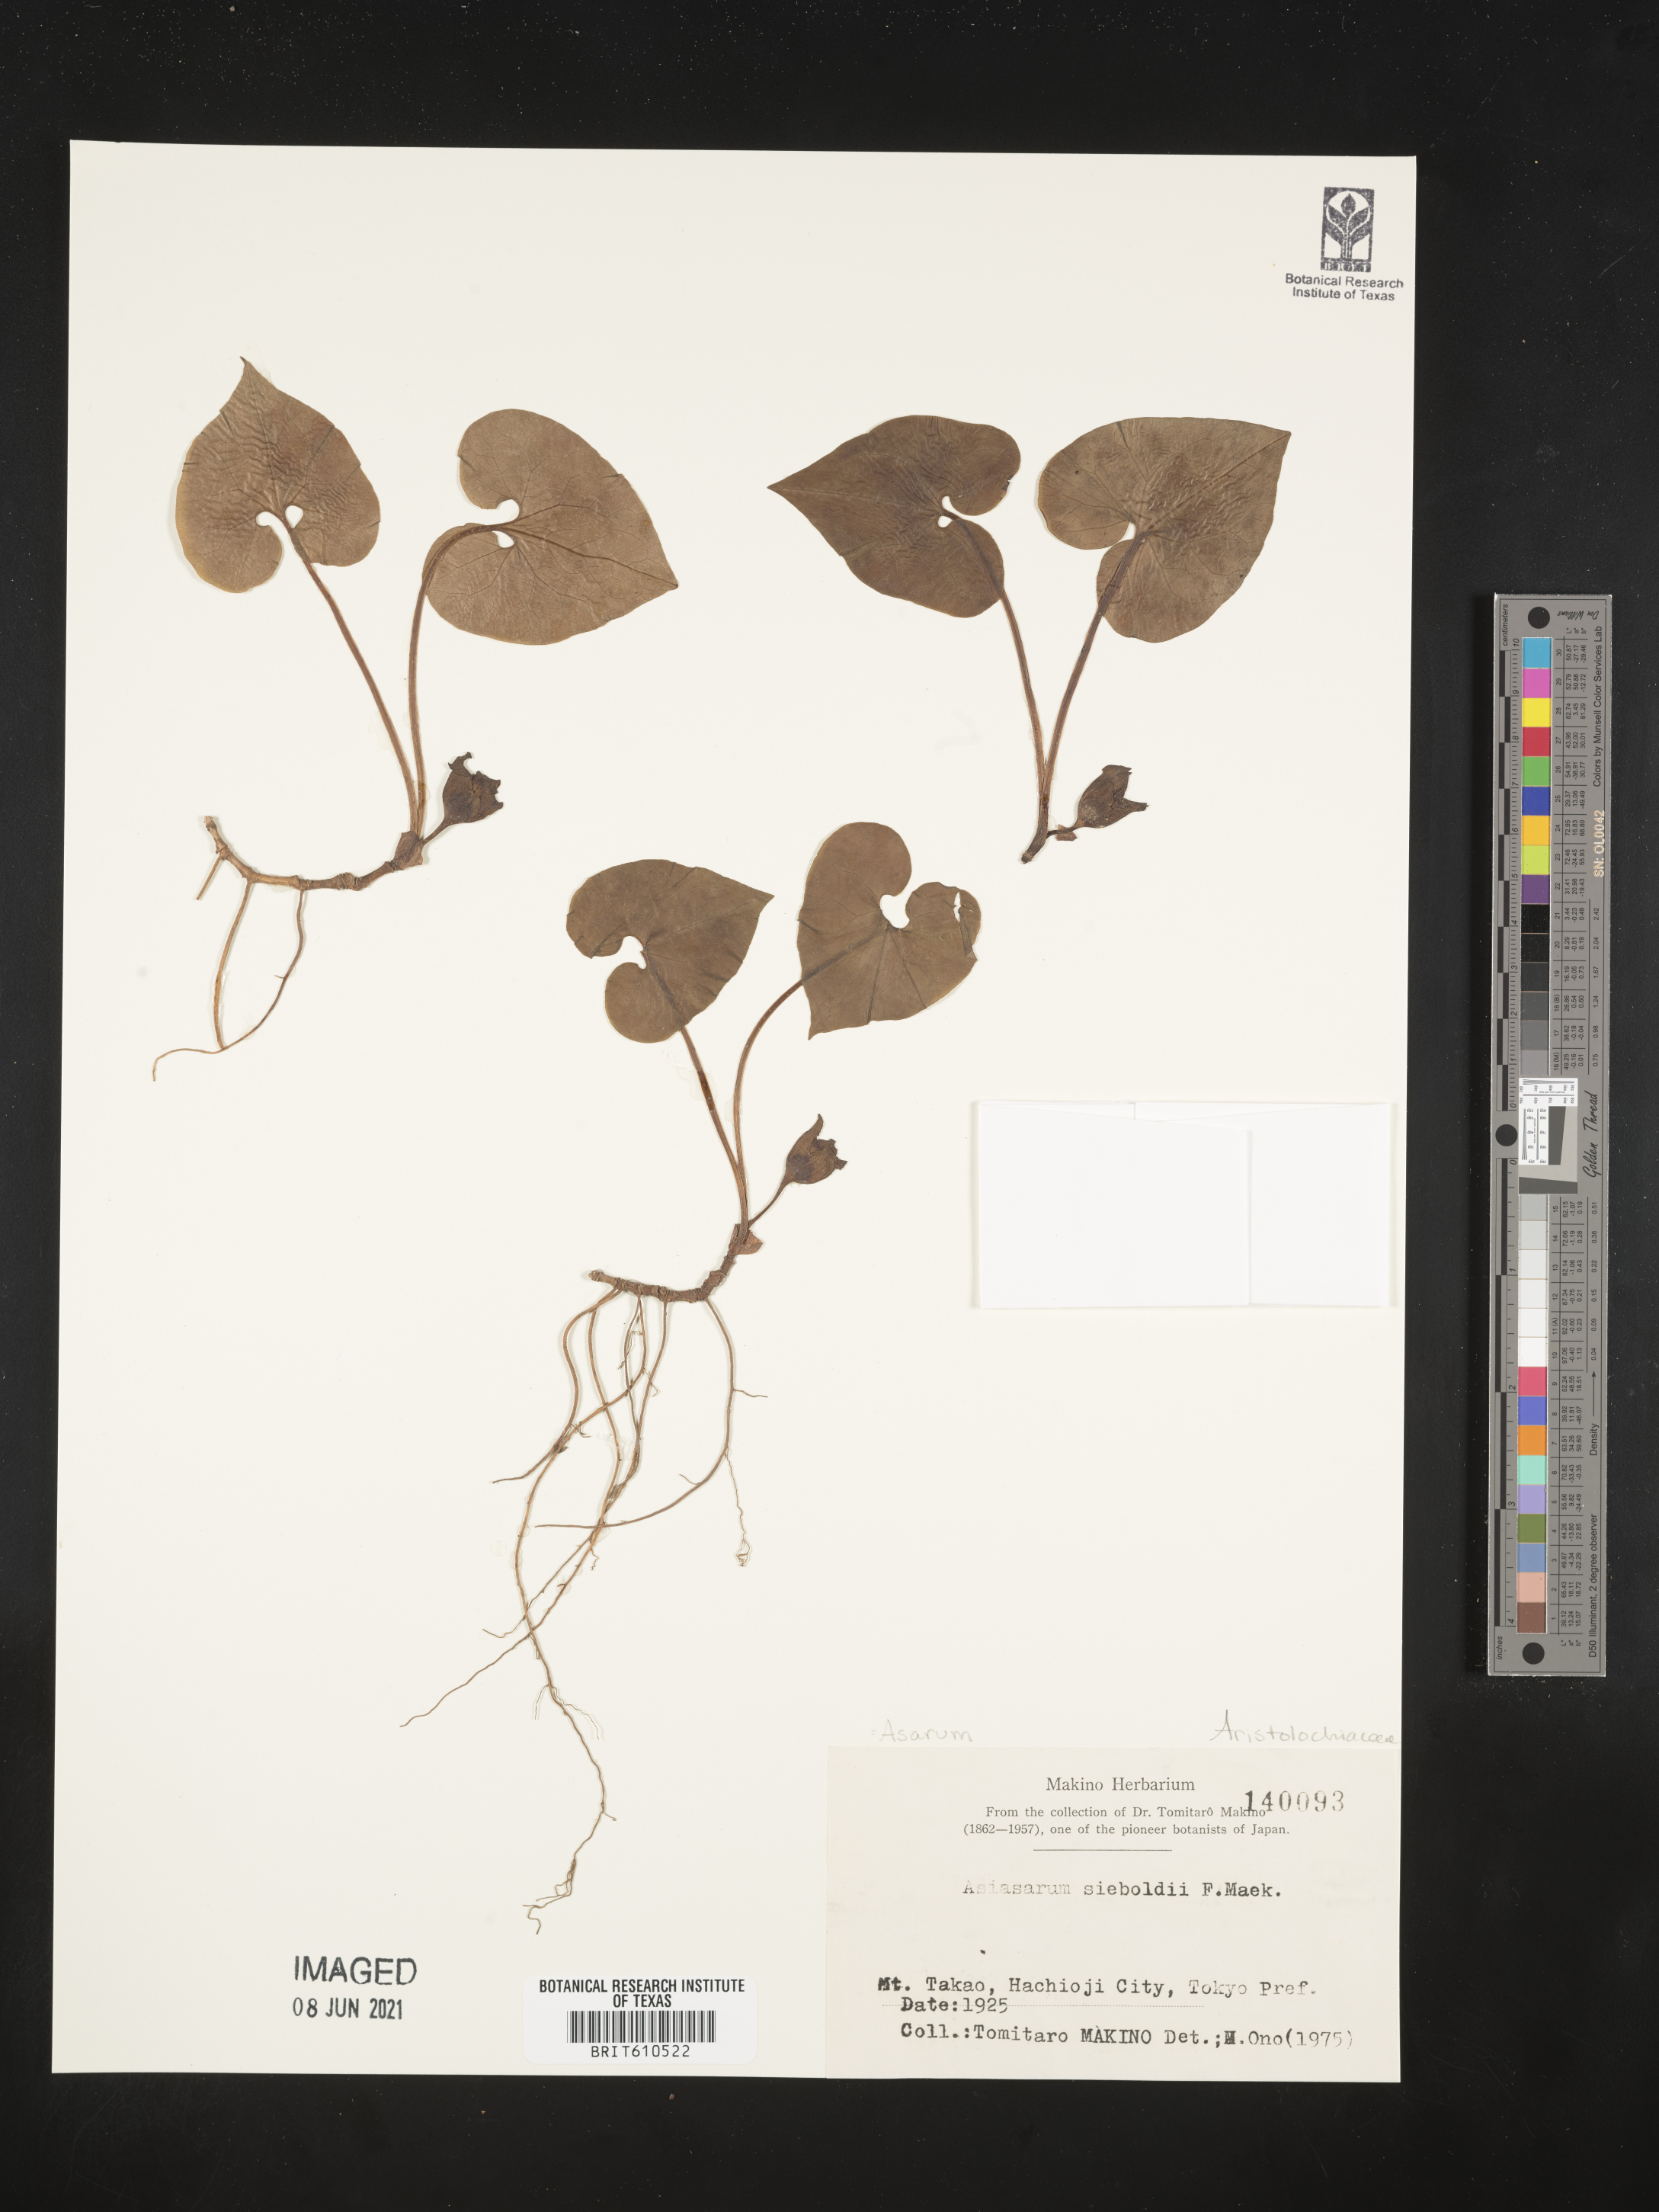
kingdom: Plantae
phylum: Tracheophyta
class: Magnoliopsida
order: Piperales
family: Aristolochiaceae
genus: Asarum
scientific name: Asarum sieboldii
